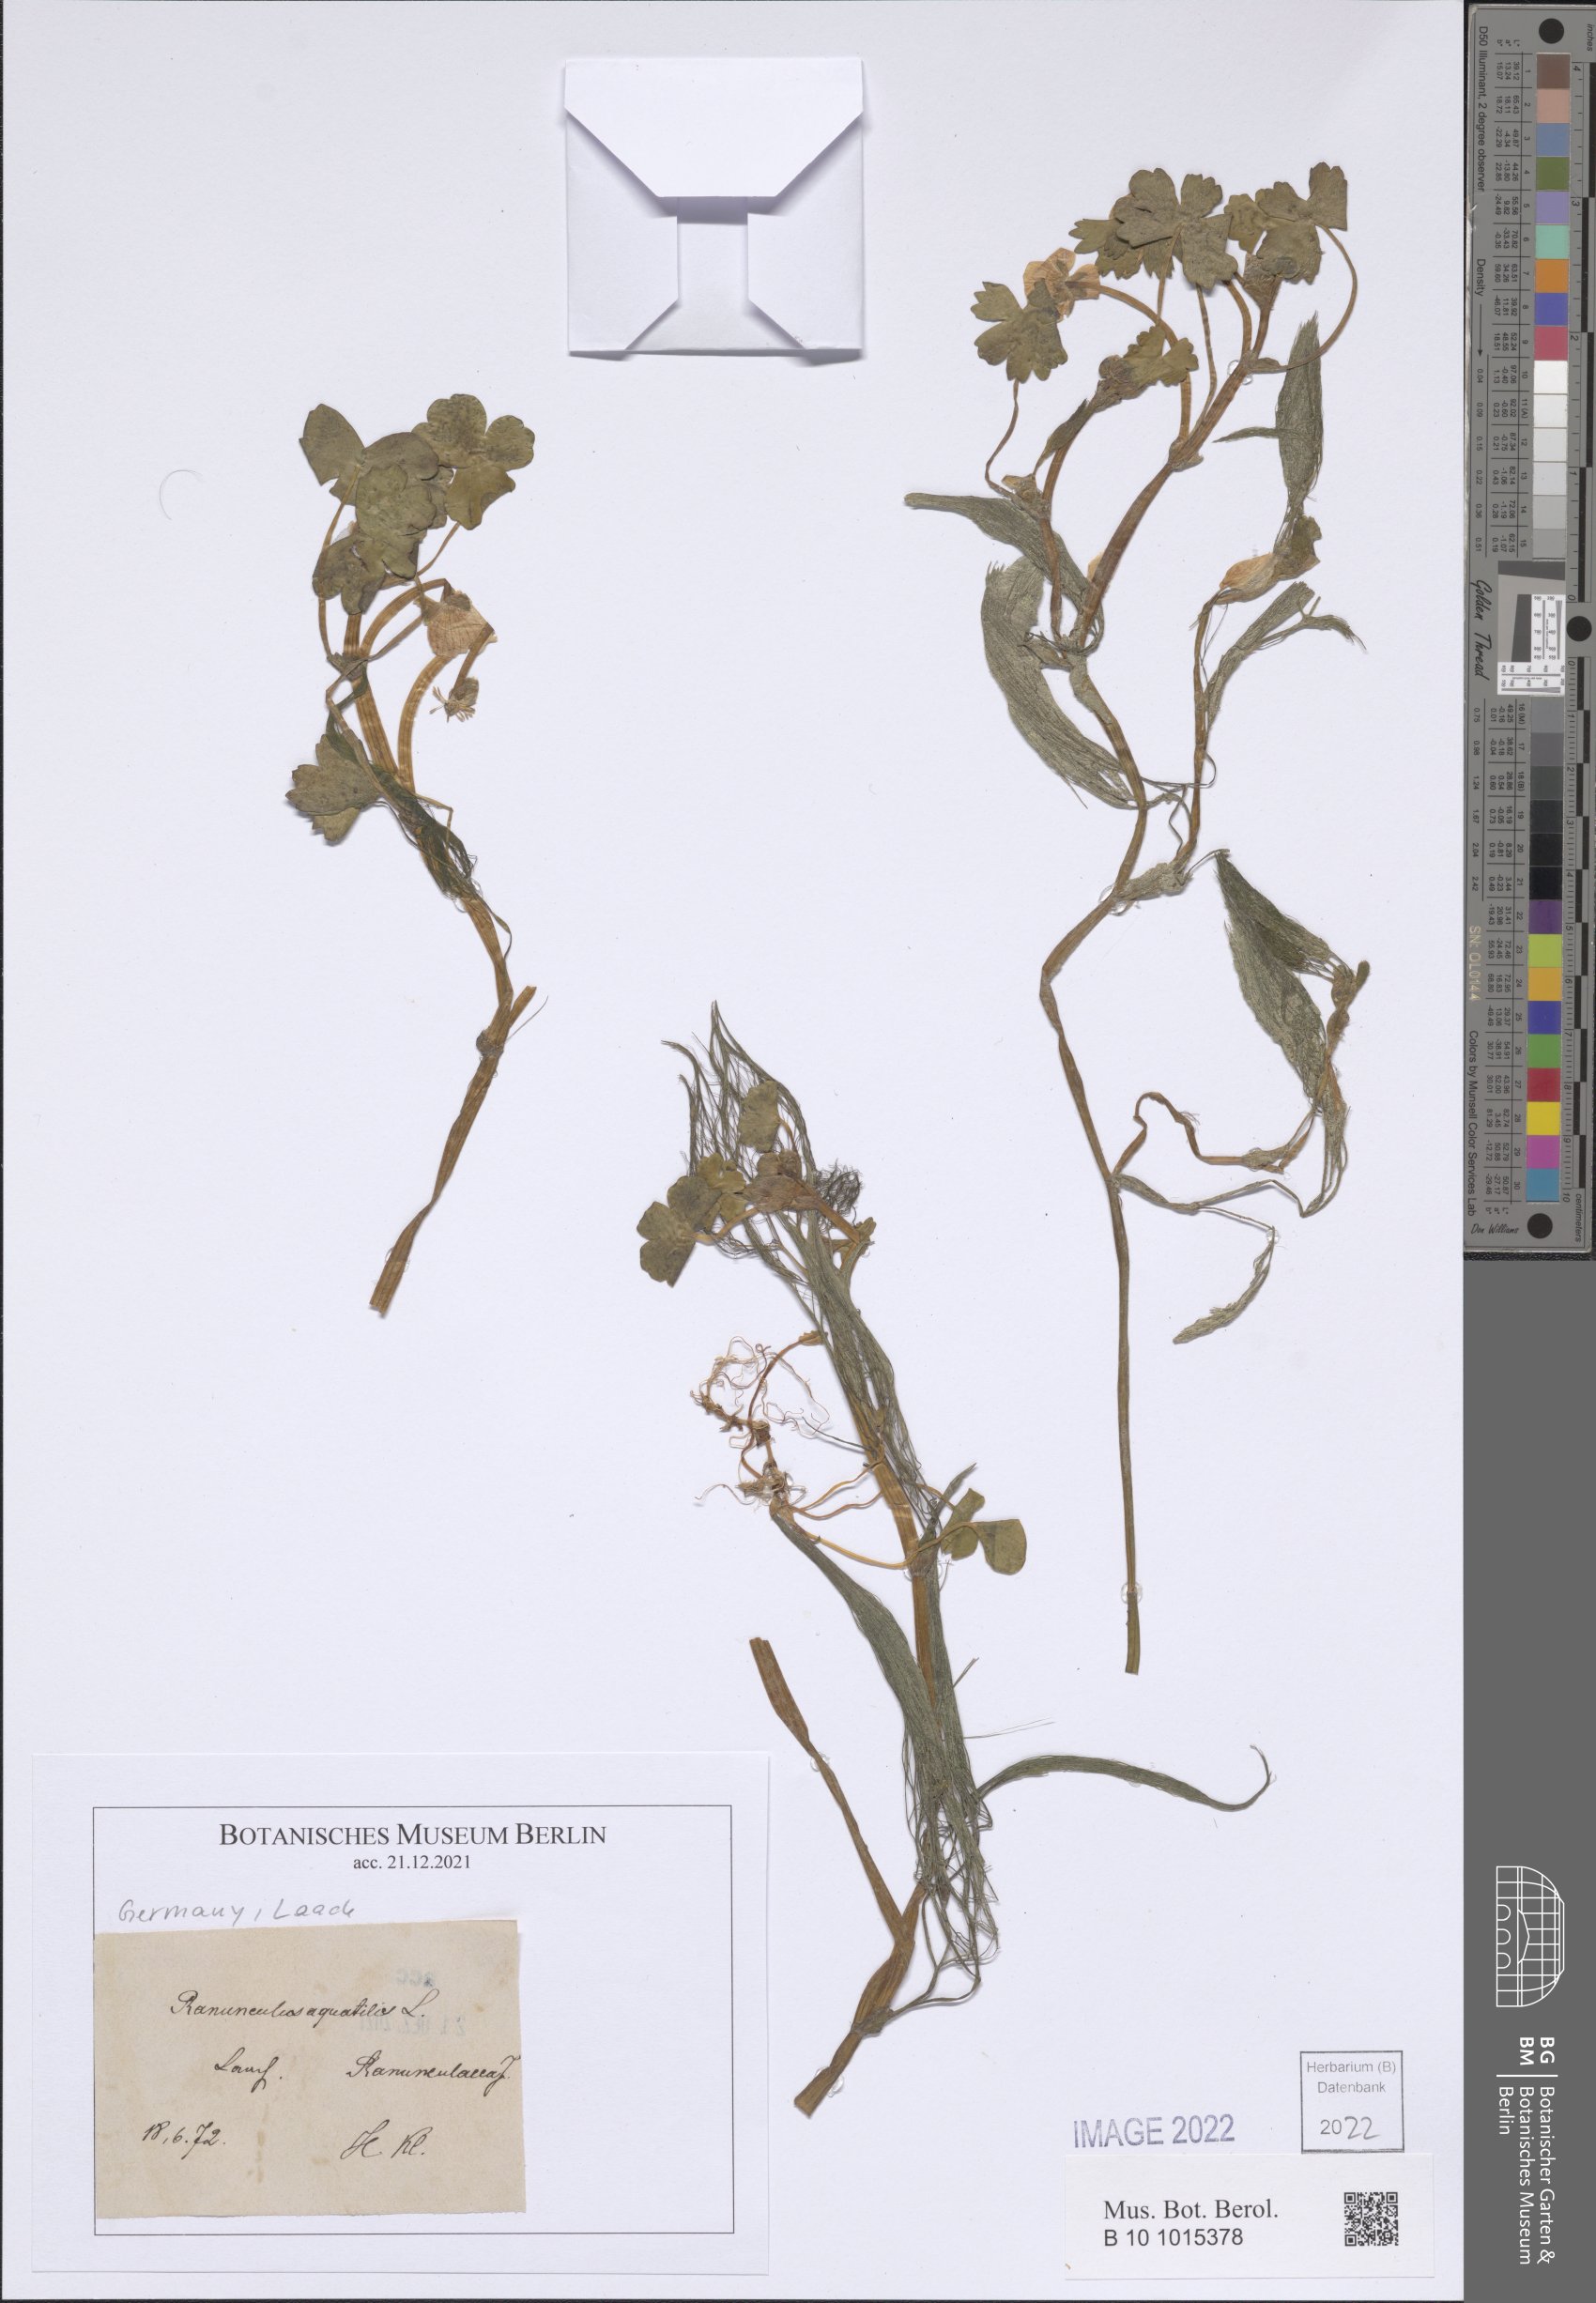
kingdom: Plantae
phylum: Tracheophyta
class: Magnoliopsida
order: Ranunculales
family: Ranunculaceae
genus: Ranunculus
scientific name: Ranunculus peltatus
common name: Pond water-crowfoot
